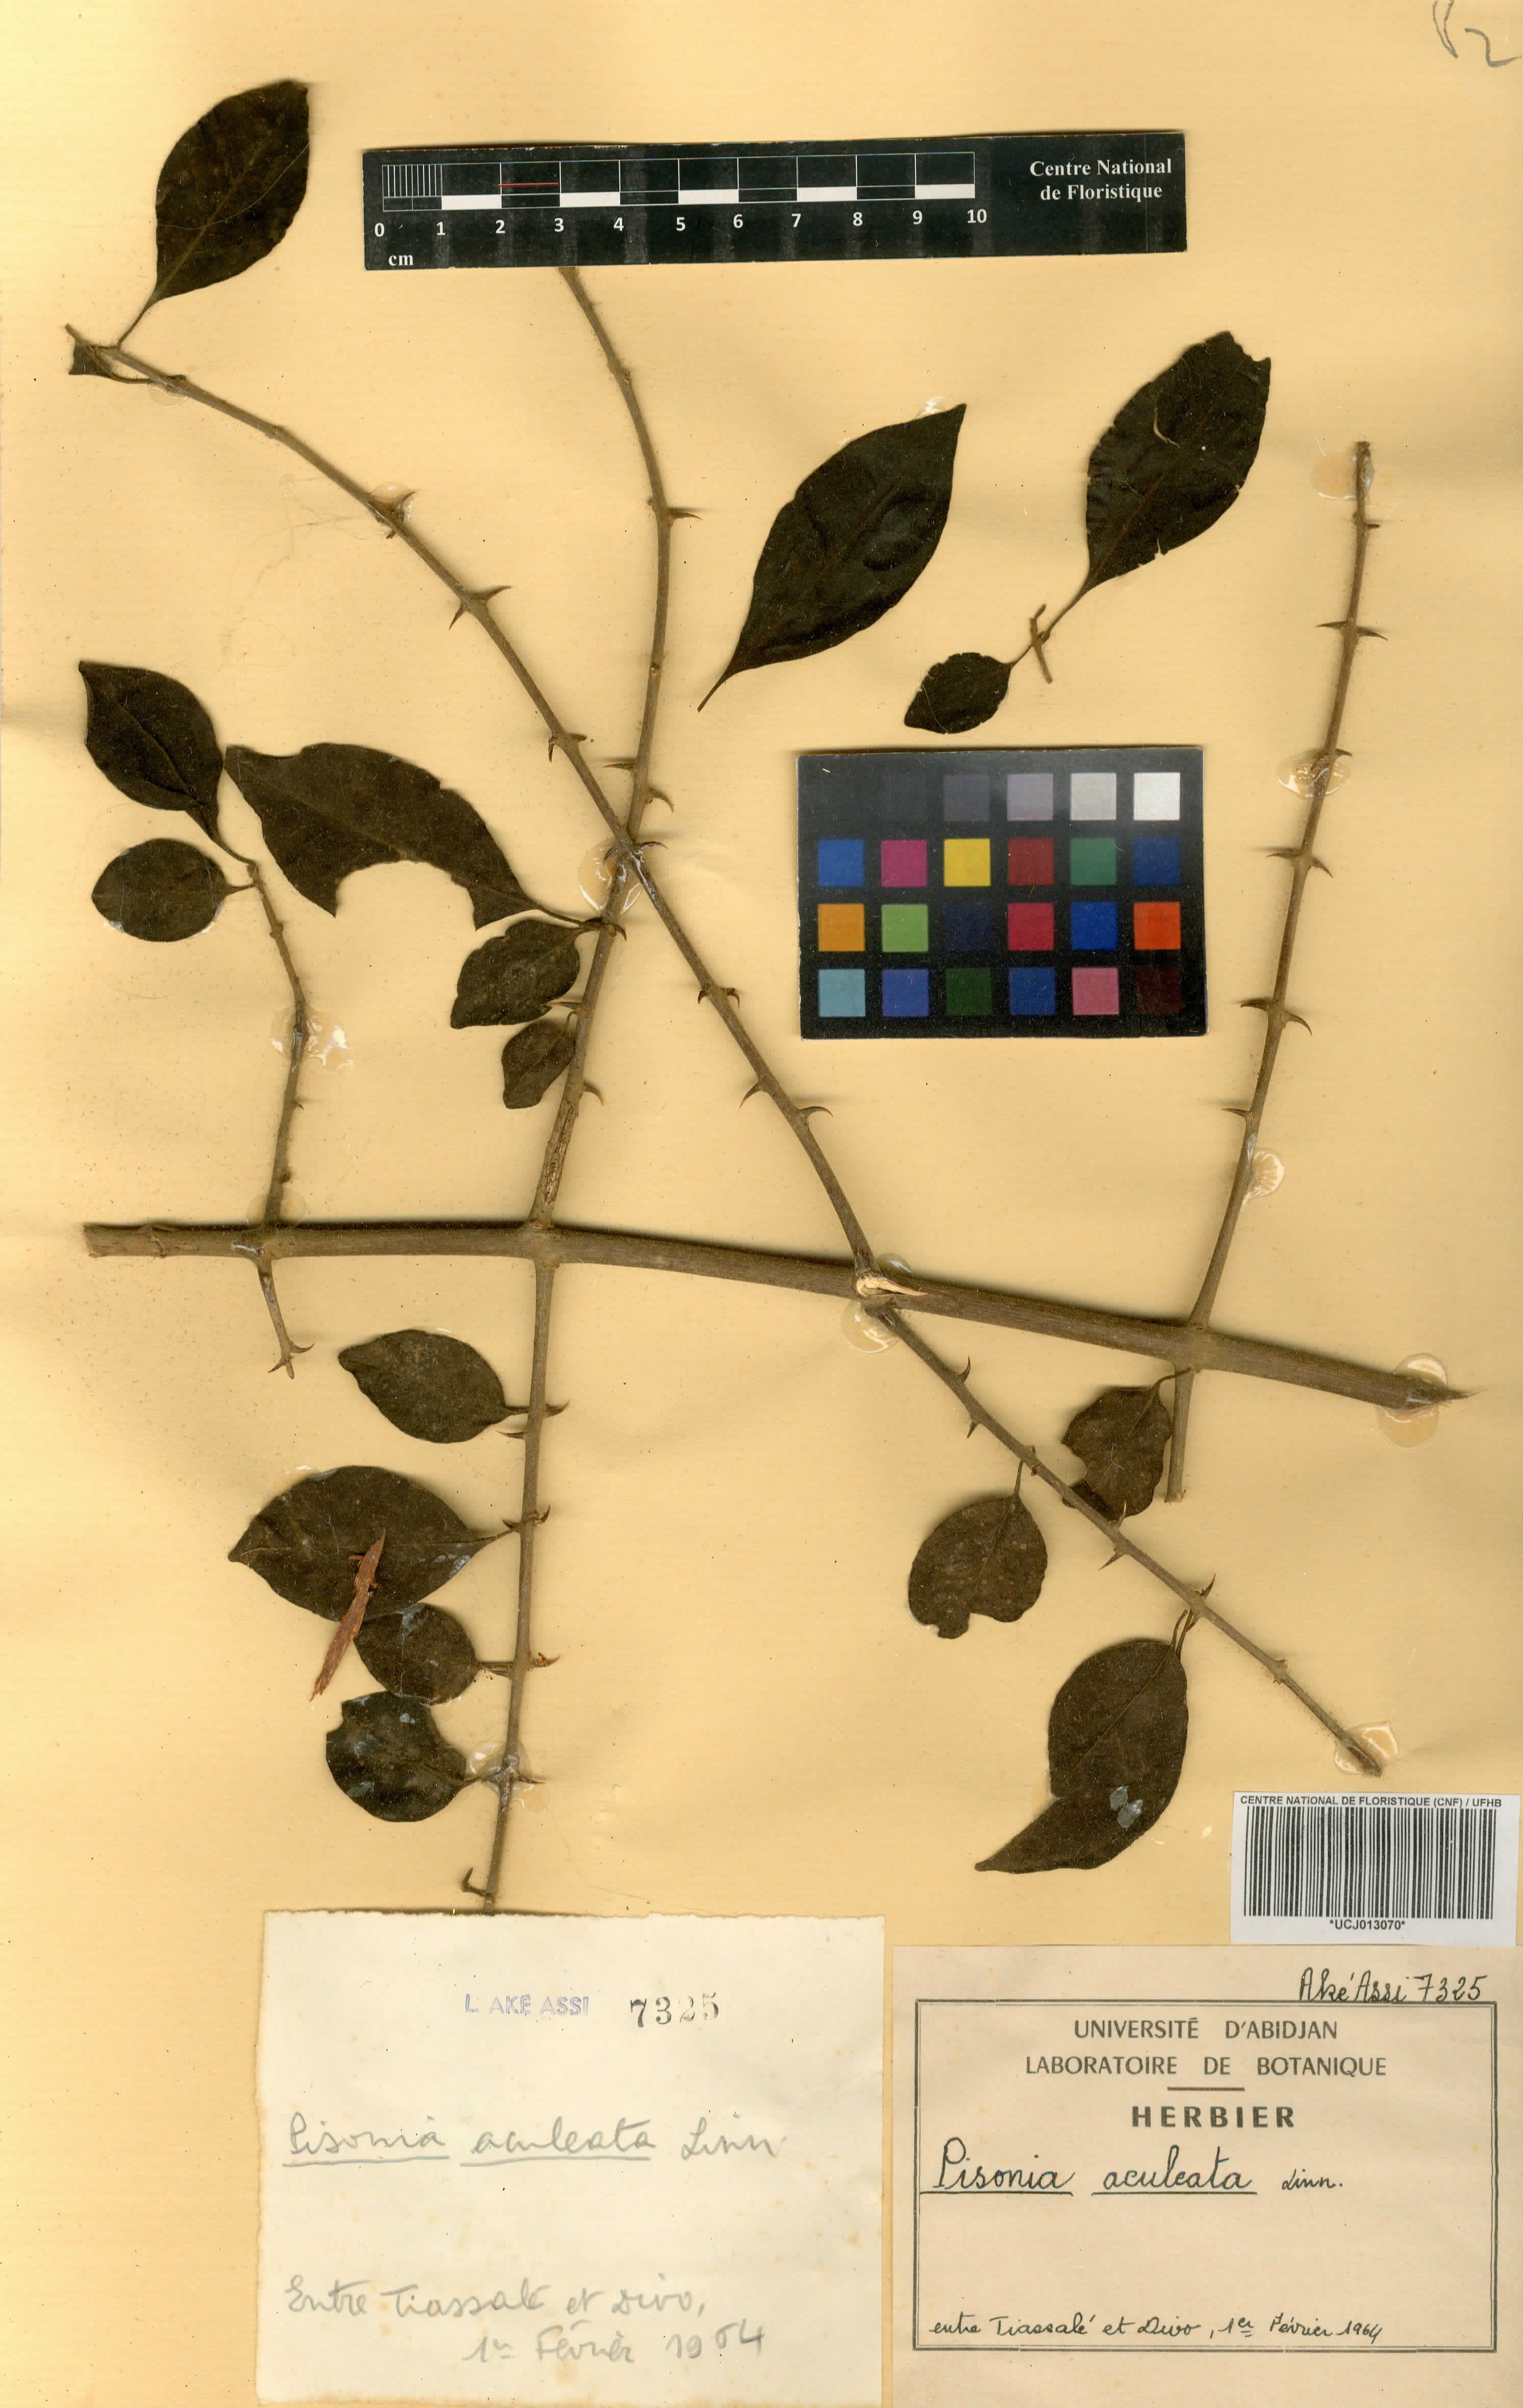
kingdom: Plantae
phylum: Tracheophyta
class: Magnoliopsida
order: Caryophyllales
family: Nyctaginaceae
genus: Pisonia
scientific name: Pisonia aculeata
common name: Cockspur vine
